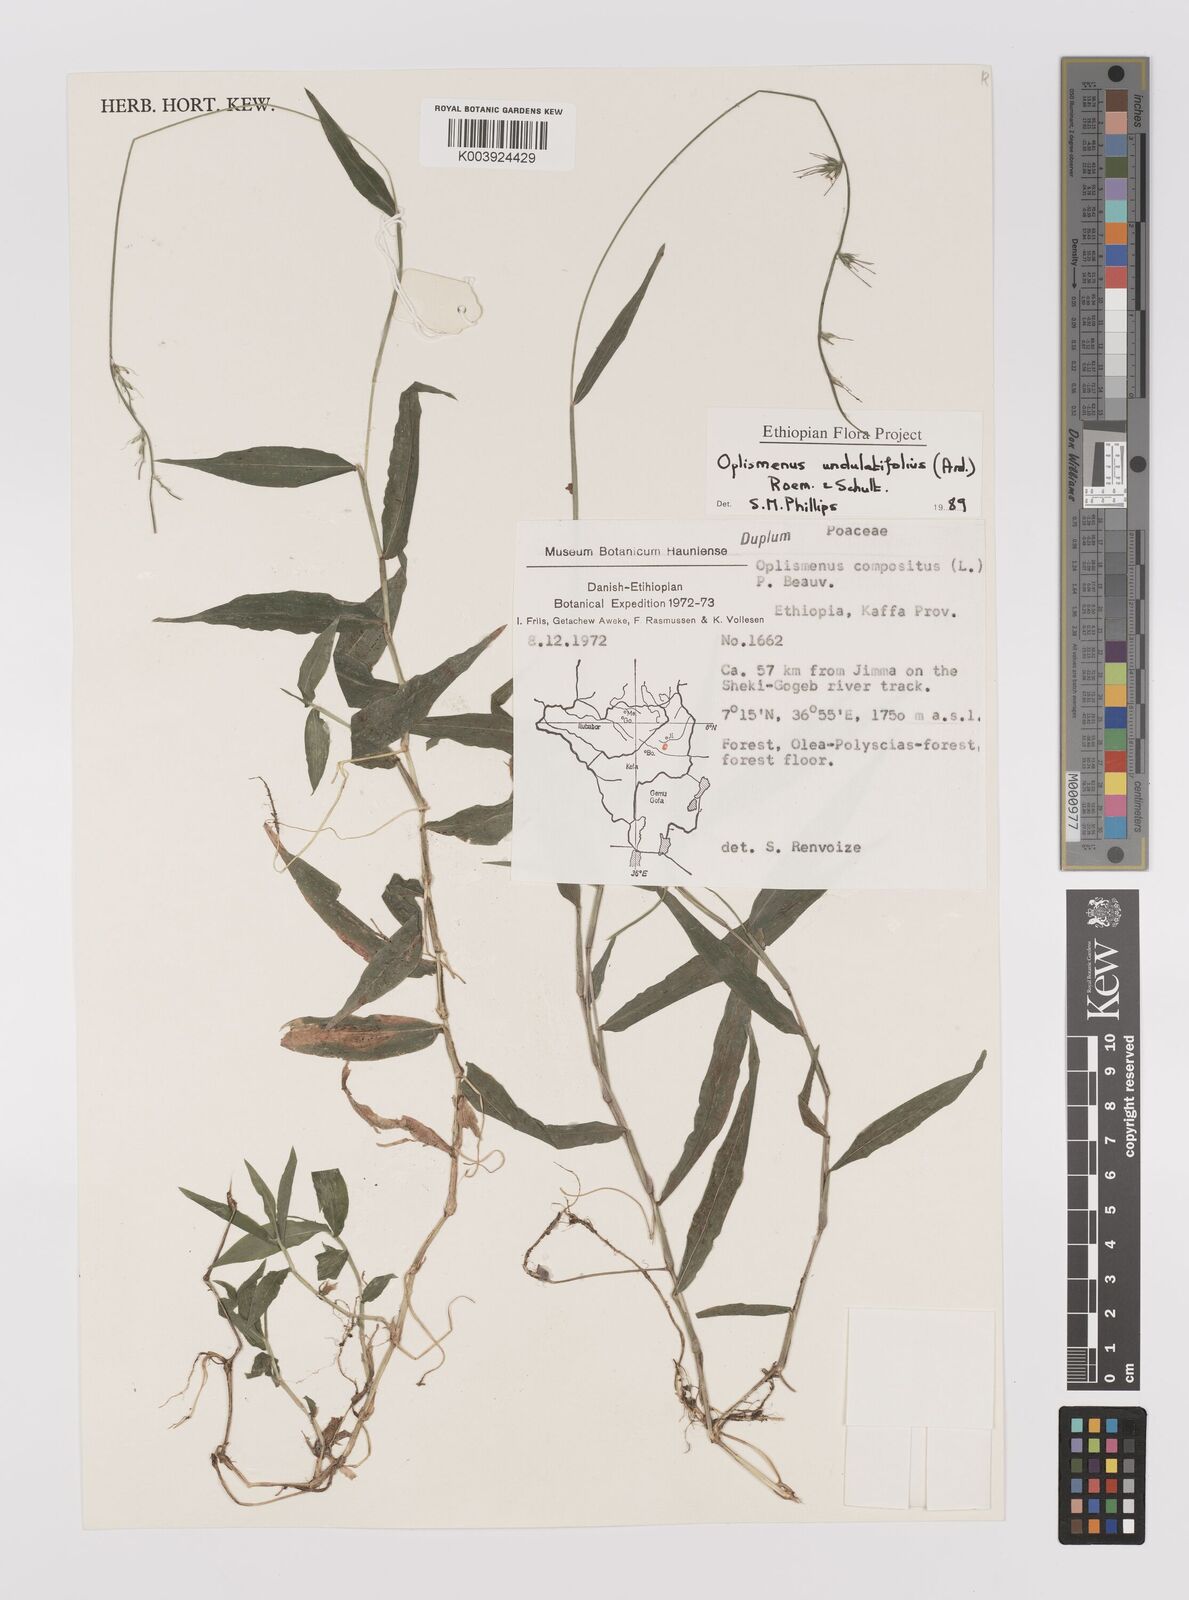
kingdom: Plantae
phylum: Tracheophyta
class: Liliopsida
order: Poales
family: Poaceae
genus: Oplismenus
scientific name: Oplismenus undulatifolius
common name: Wavyleaf basketgrass
